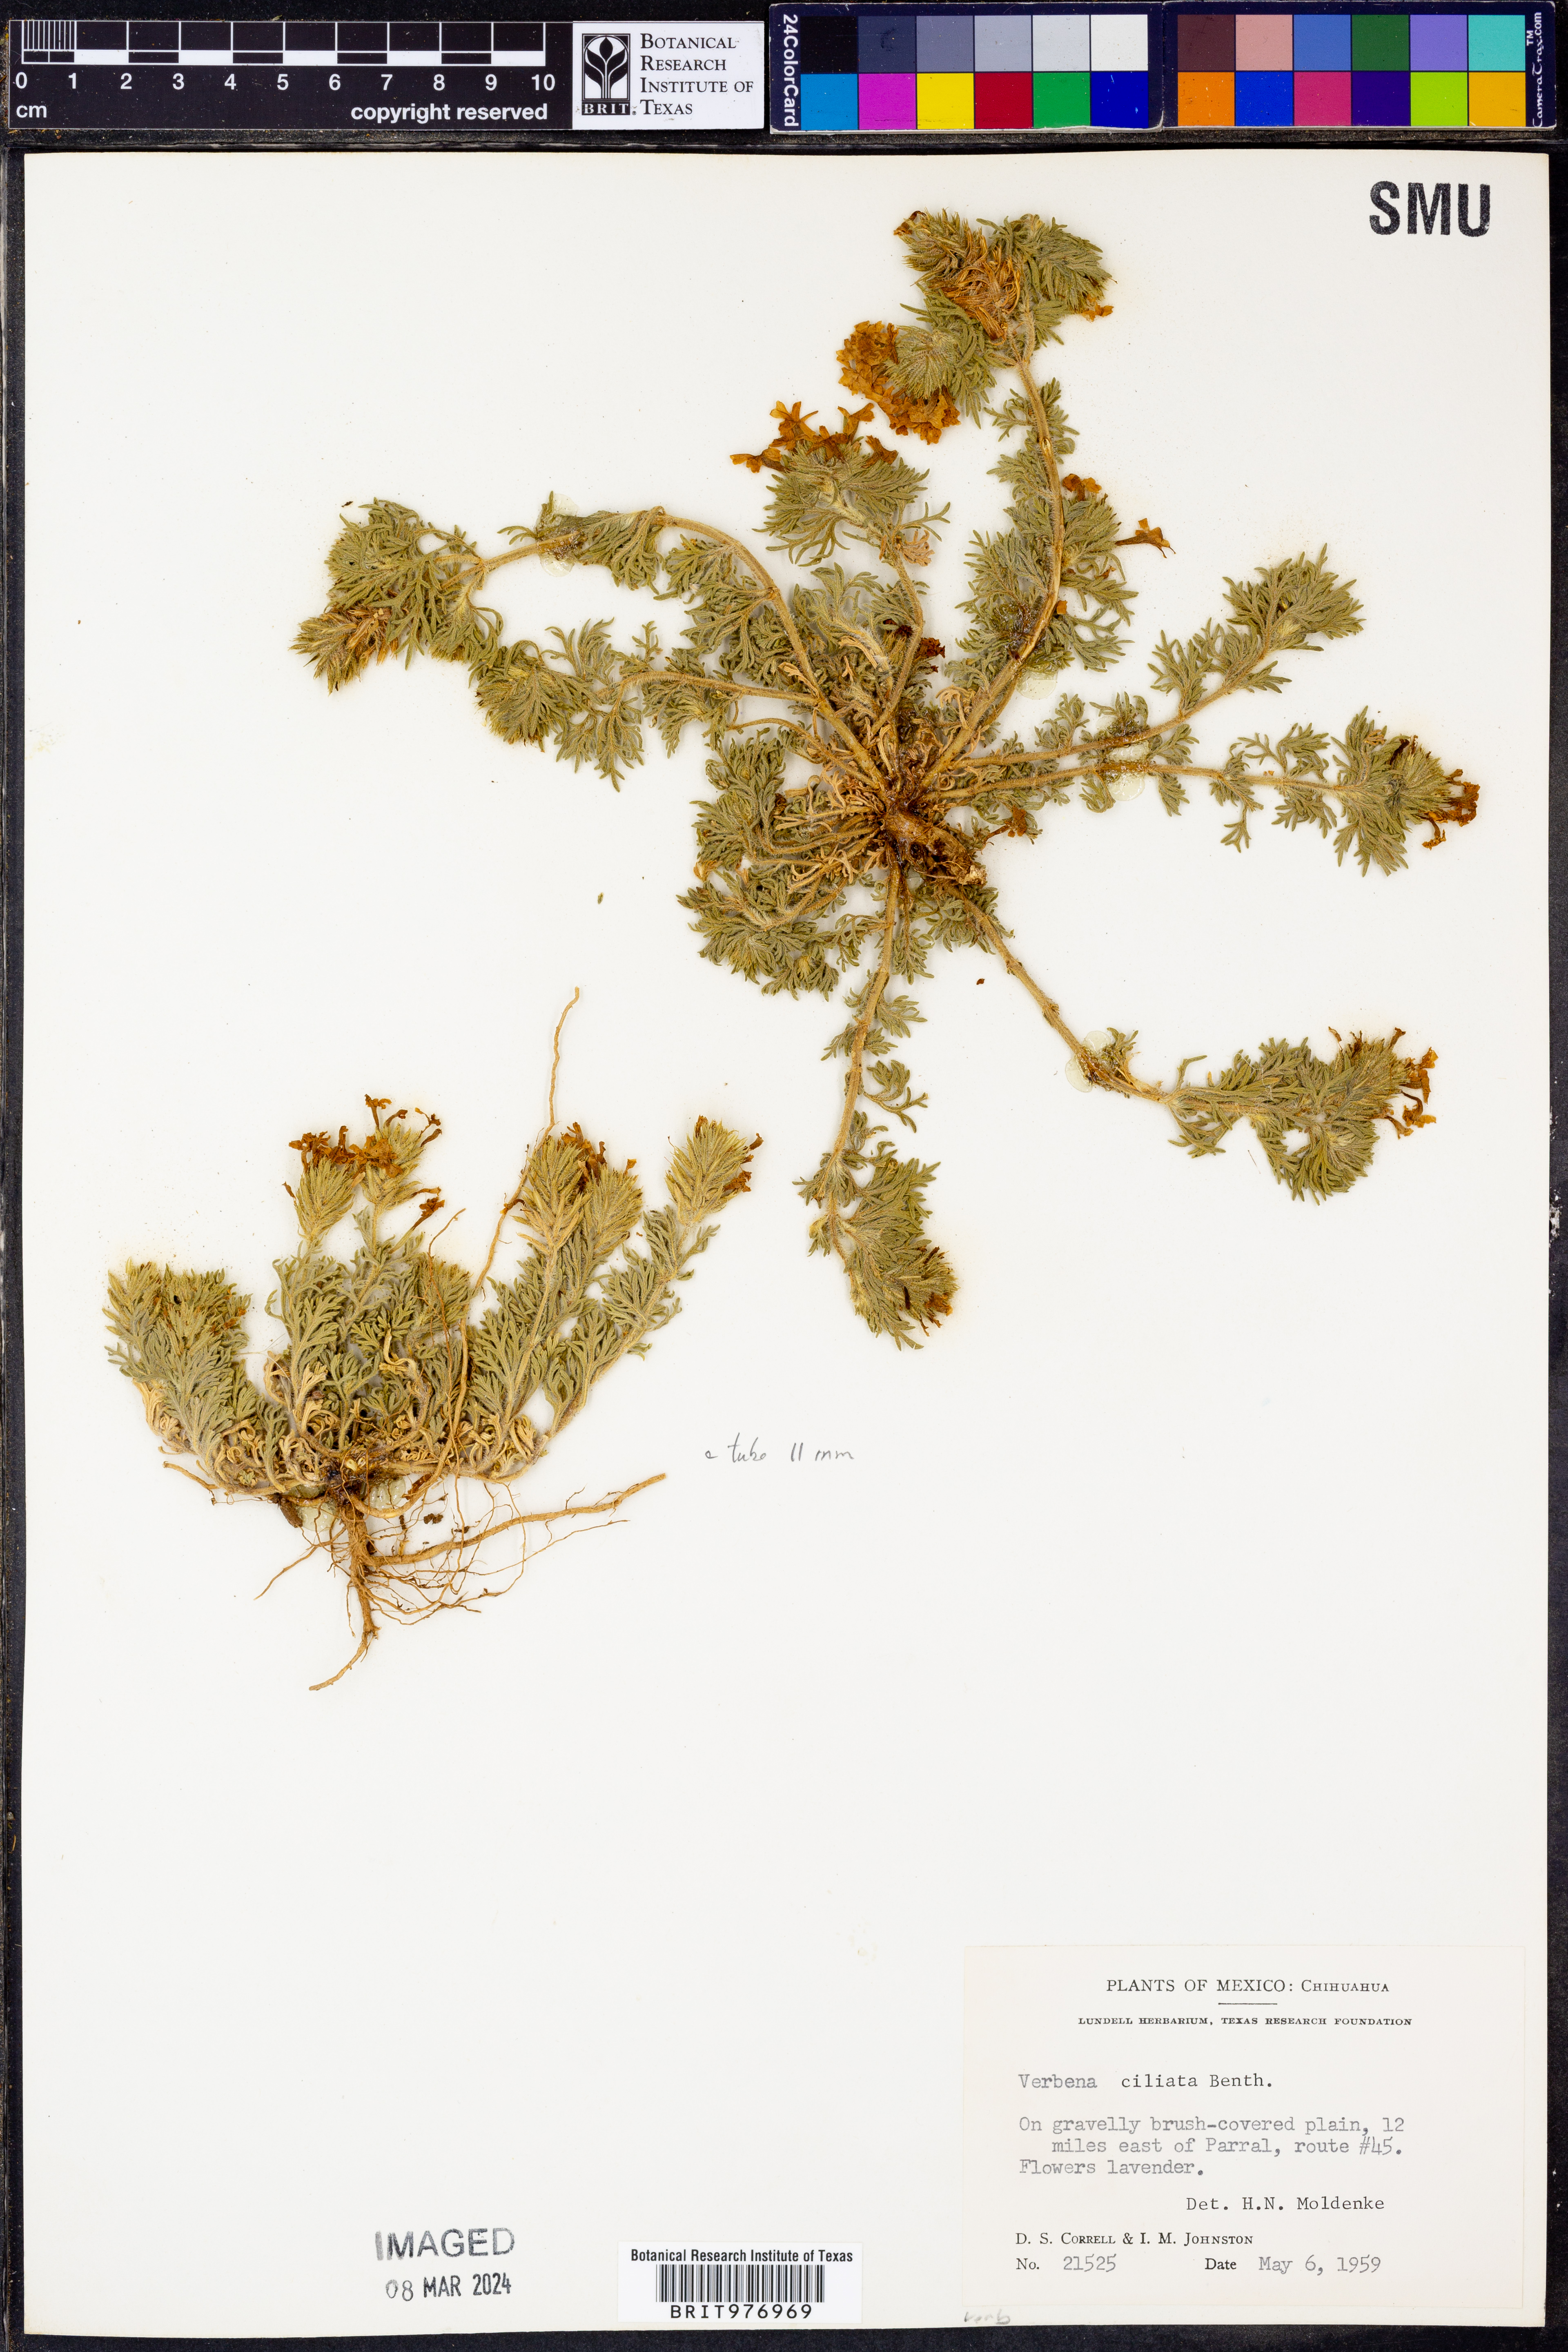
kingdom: Plantae
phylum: Tracheophyta
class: Magnoliopsida
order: Lamiales
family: Verbenaceae
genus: Verbena
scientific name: Verbena
